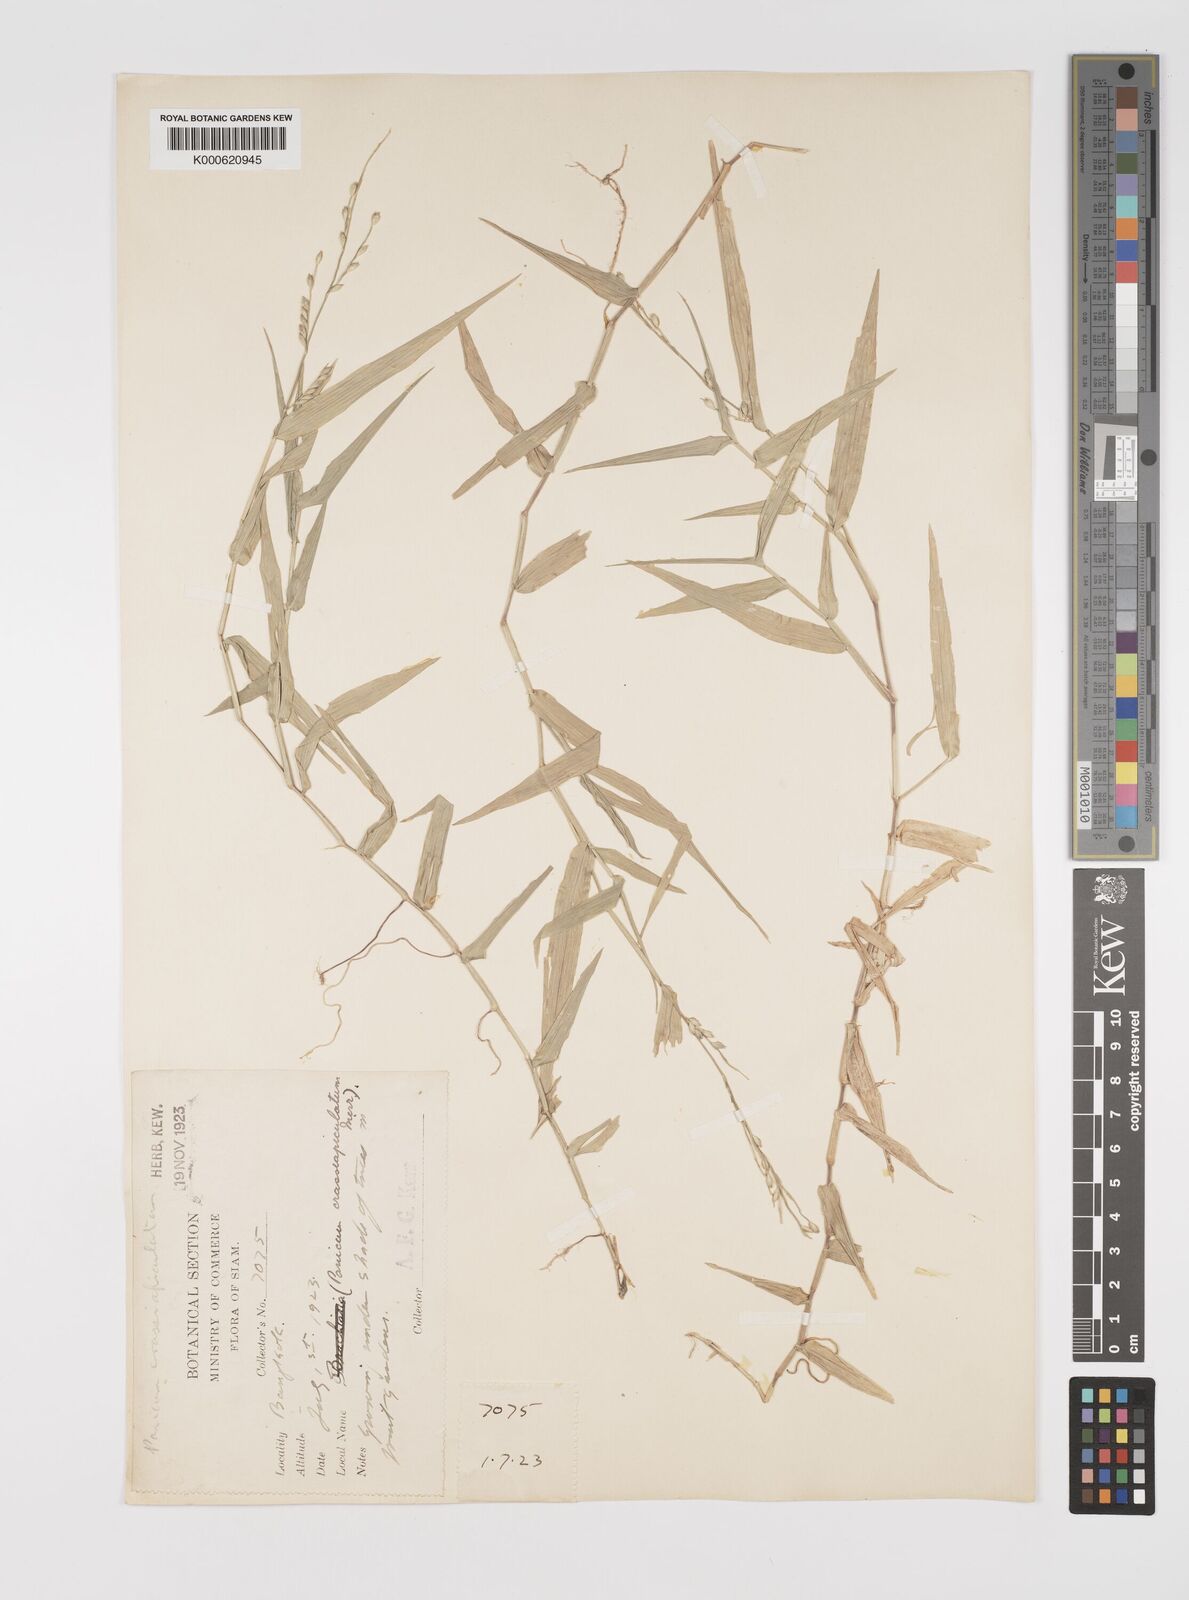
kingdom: Plantae
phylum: Tracheophyta
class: Liliopsida
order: Poales
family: Poaceae
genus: Acroceras
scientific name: Acroceras munroanum
